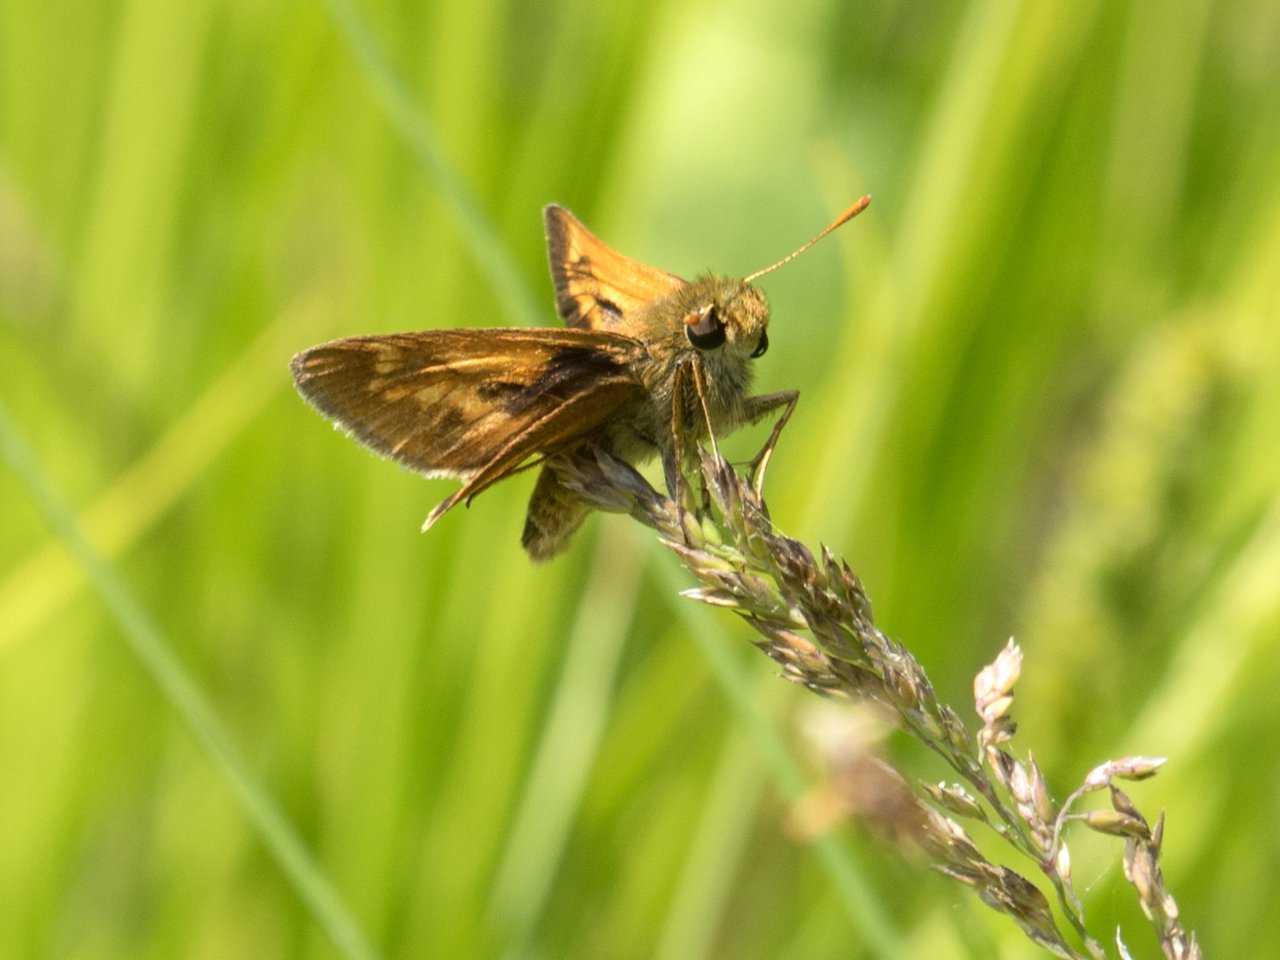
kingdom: Animalia
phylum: Arthropoda
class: Insecta
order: Lepidoptera
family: Hesperiidae
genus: Polites
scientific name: Polites
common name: Long Dash Skipper
